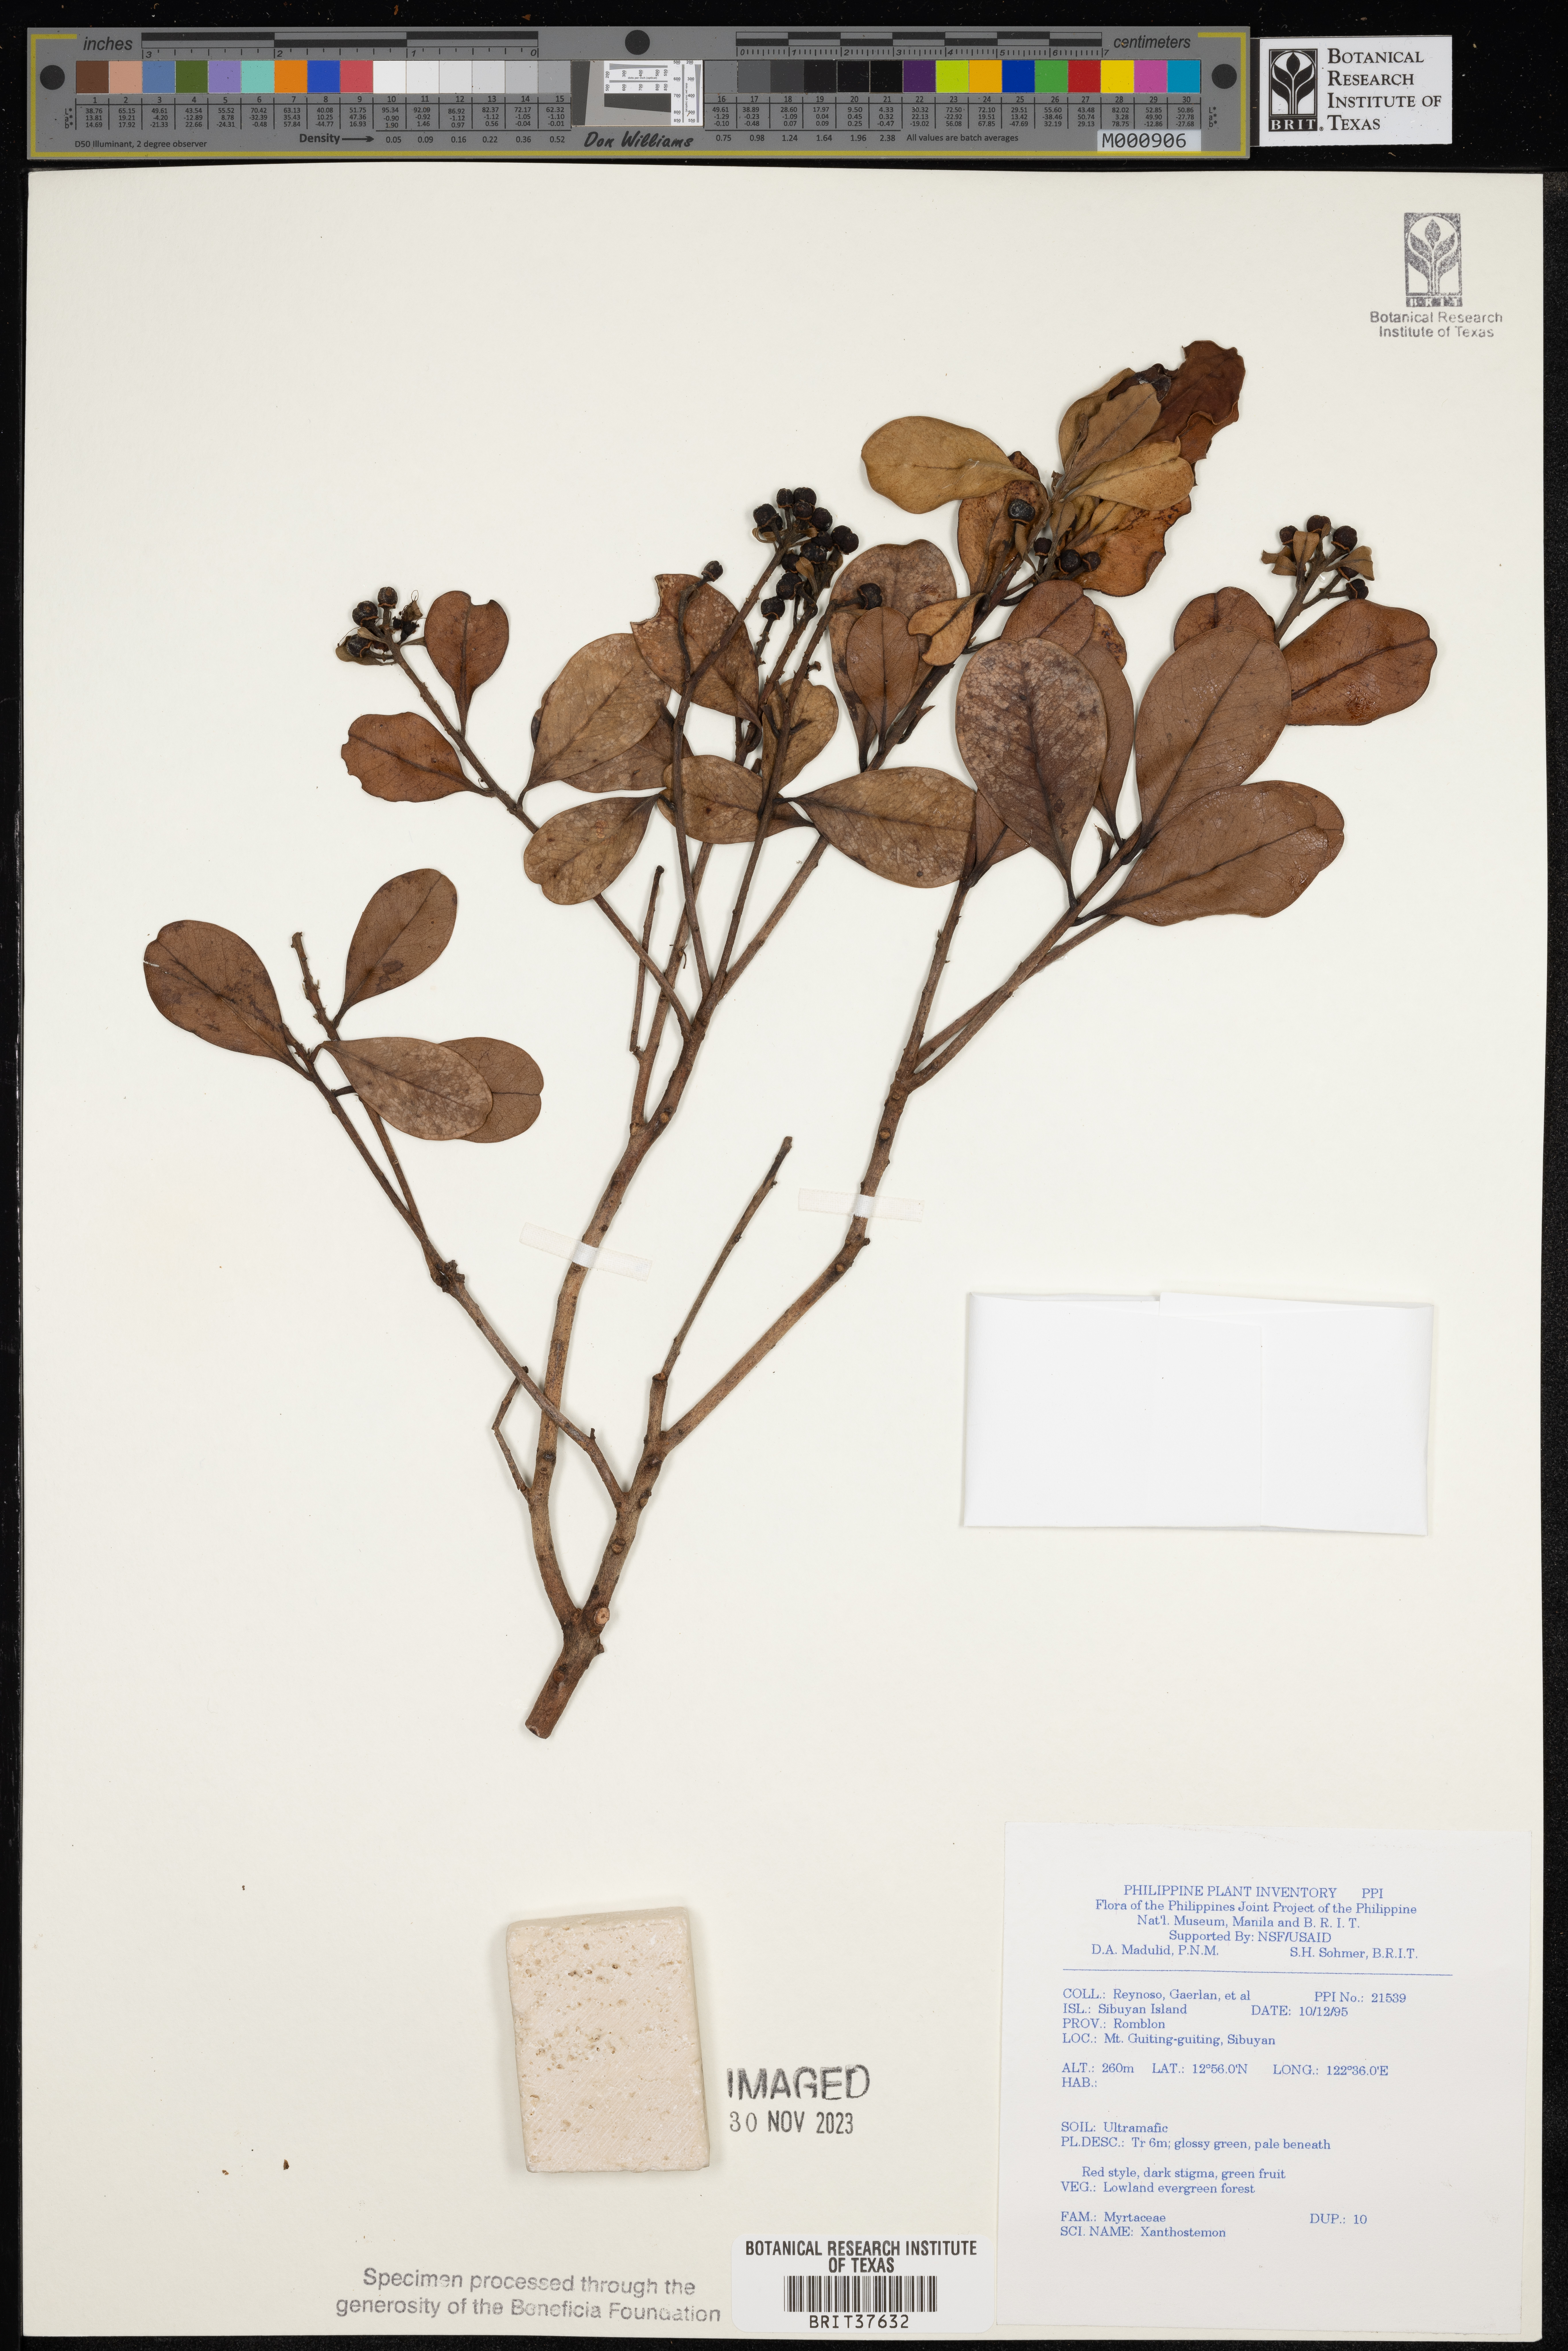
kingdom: Plantae
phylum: Tracheophyta
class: Magnoliopsida
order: Myrtales
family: Myrtaceae
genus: Xanthostemon
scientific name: Xanthostemon
